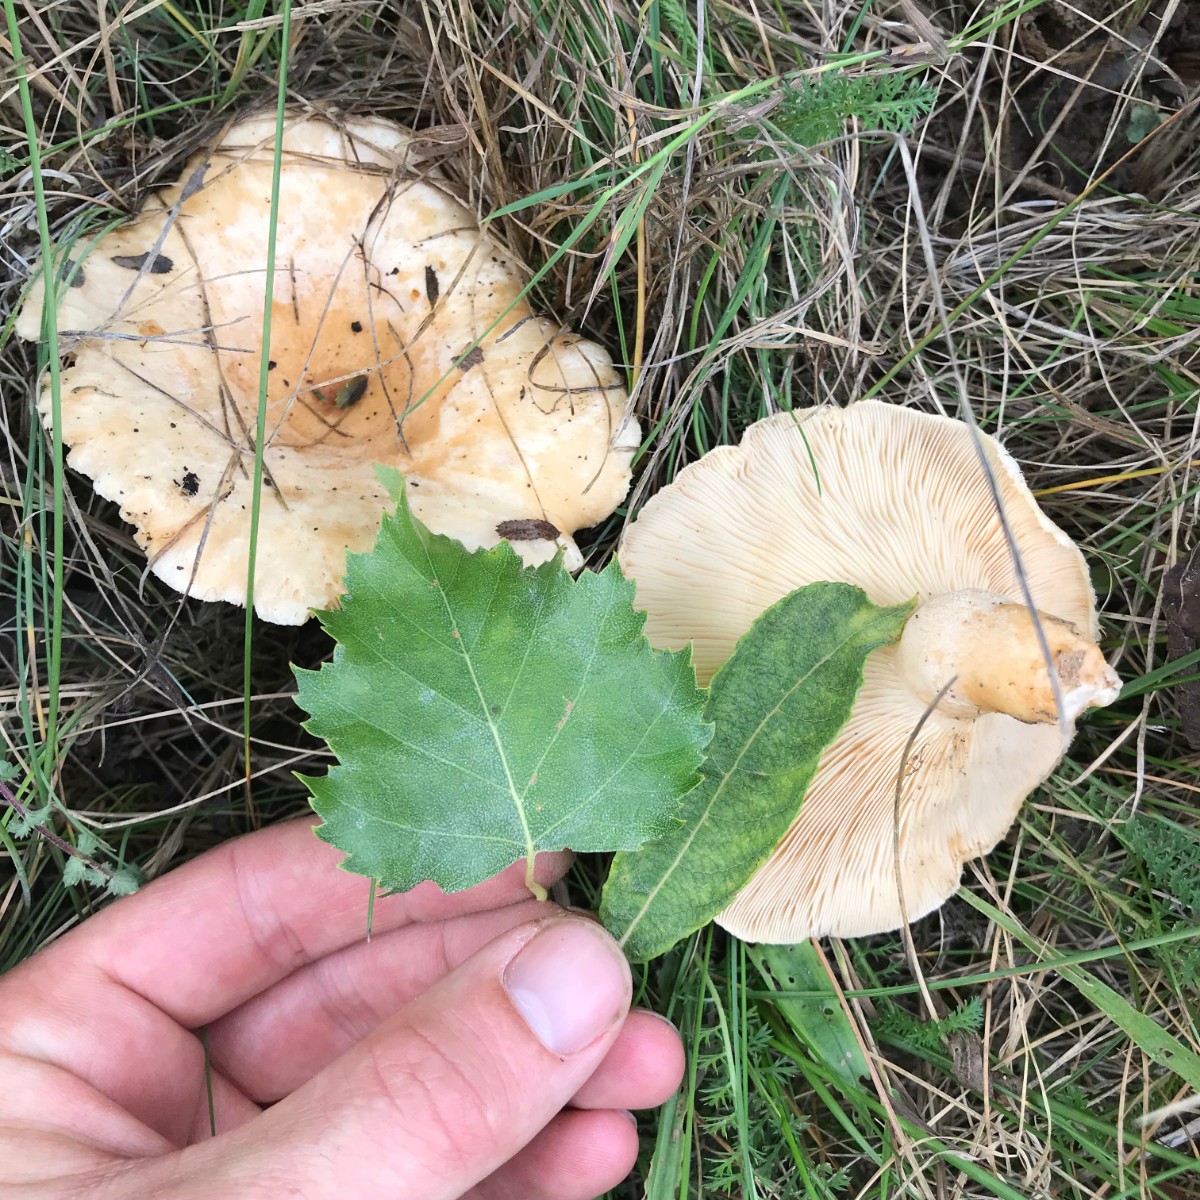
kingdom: Fungi
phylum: Basidiomycota
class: Agaricomycetes
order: Russulales
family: Russulaceae
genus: Lactarius
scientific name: Lactarius pubescens
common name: dunet mælkehat
